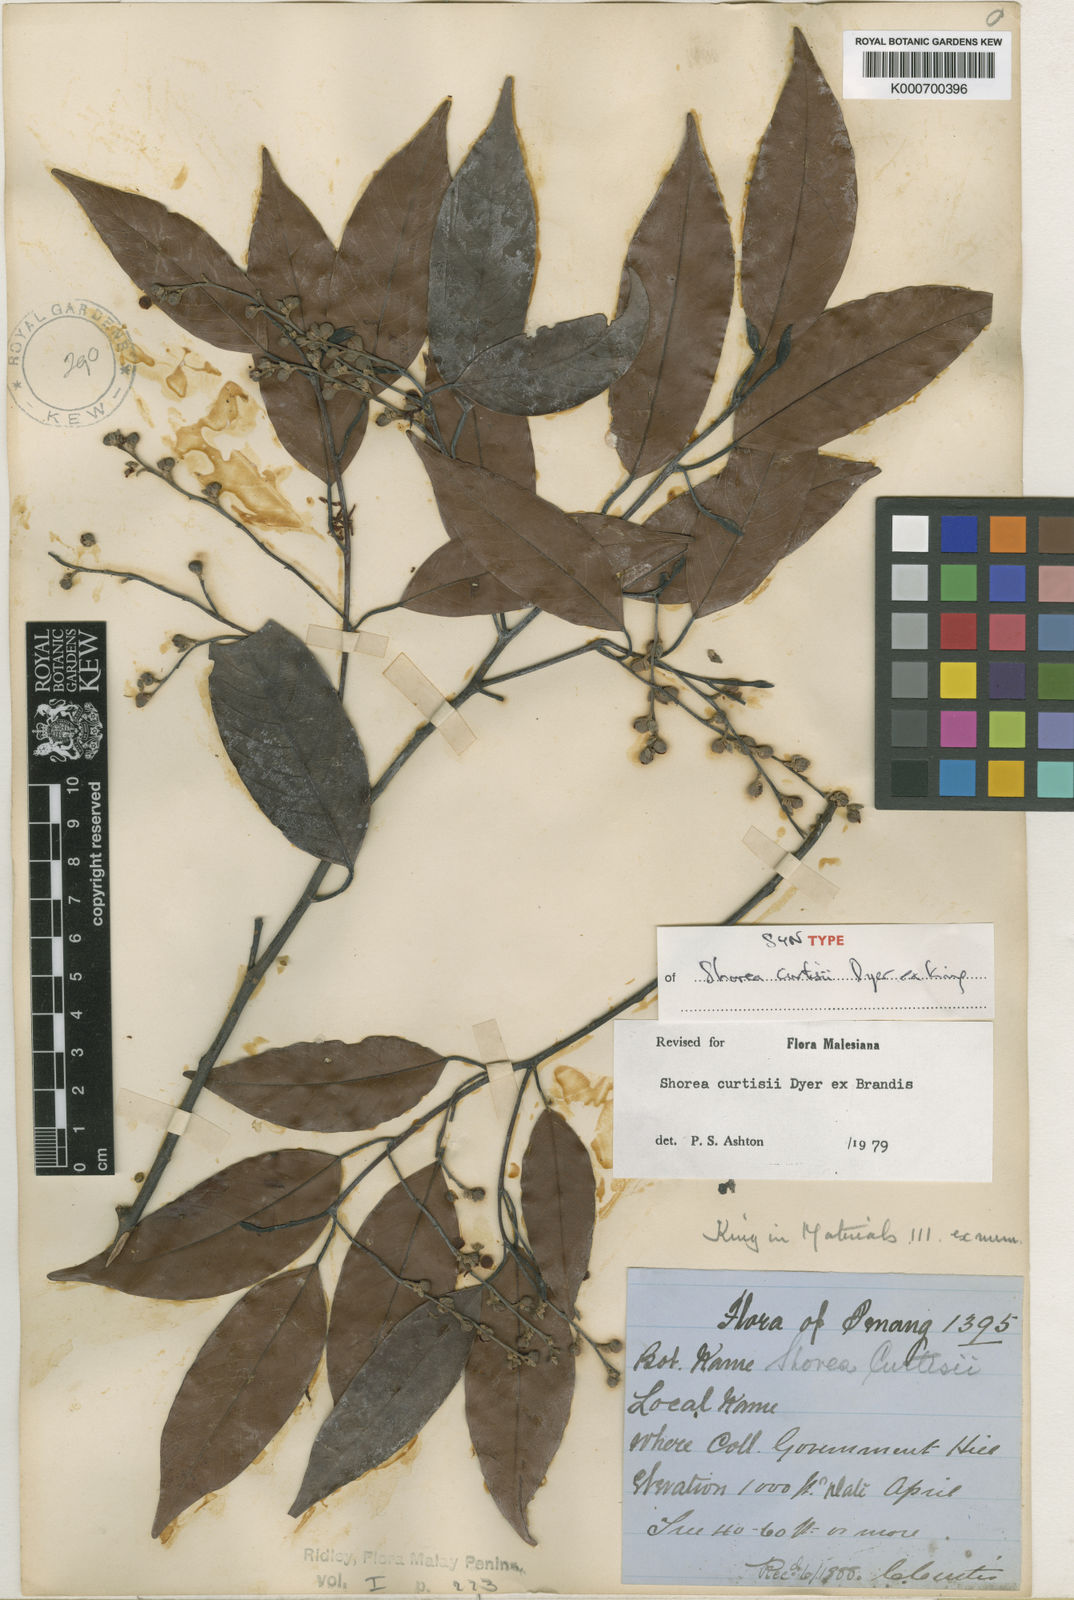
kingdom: Plantae
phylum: Tracheophyta
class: Magnoliopsida
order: Malvales
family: Dipterocarpaceae
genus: Shorea
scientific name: Shorea curtisii
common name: Dark red meranti
